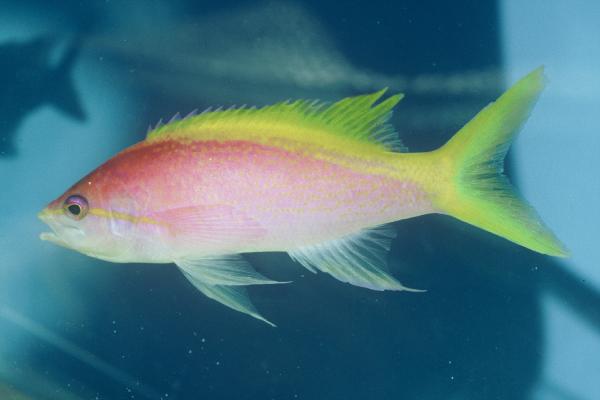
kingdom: Animalia
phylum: Chordata
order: Perciformes
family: Serranidae
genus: Pseudanthias
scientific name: Pseudanthias evansi
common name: Goldback anthias
